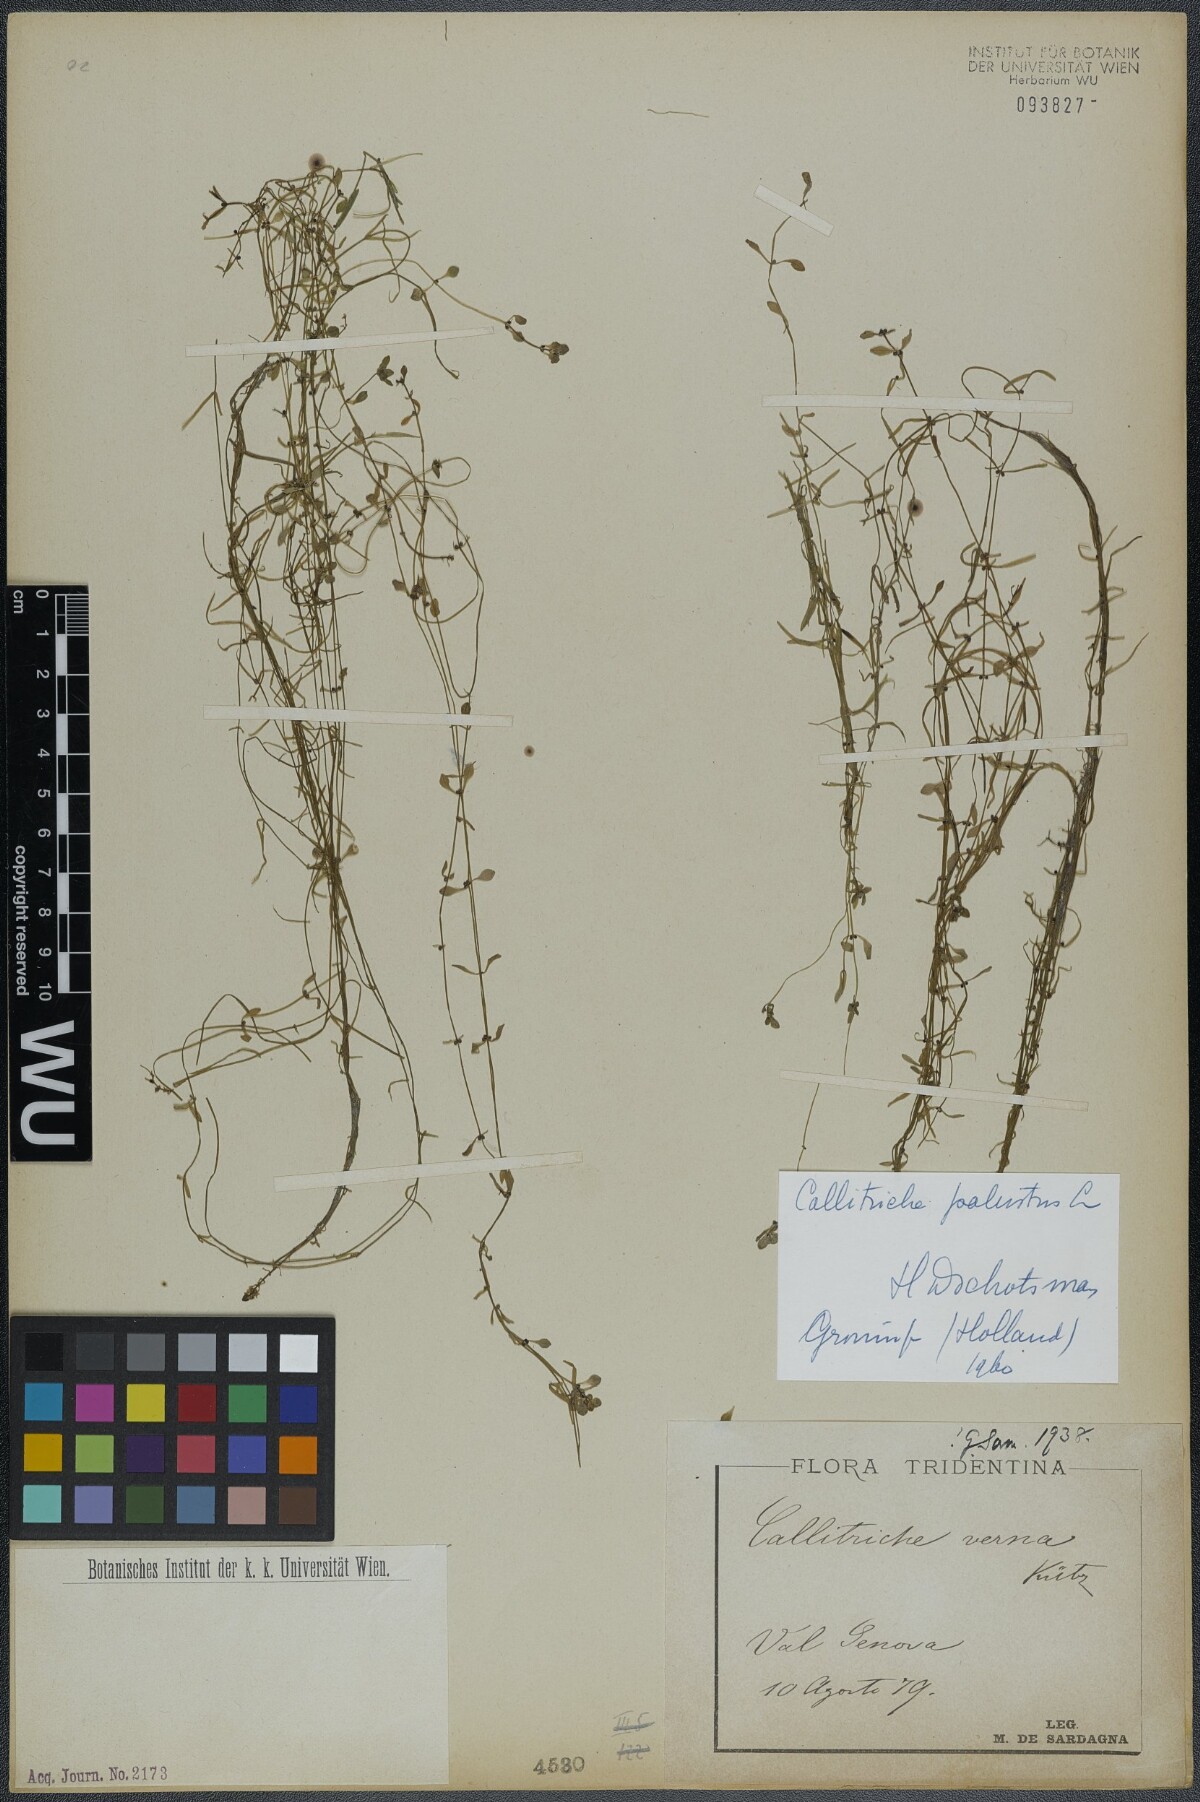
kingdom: Plantae
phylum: Tracheophyta
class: Magnoliopsida
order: Lamiales
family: Plantaginaceae
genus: Callitriche
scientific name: Callitriche palustris
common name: Spring water-starwort
